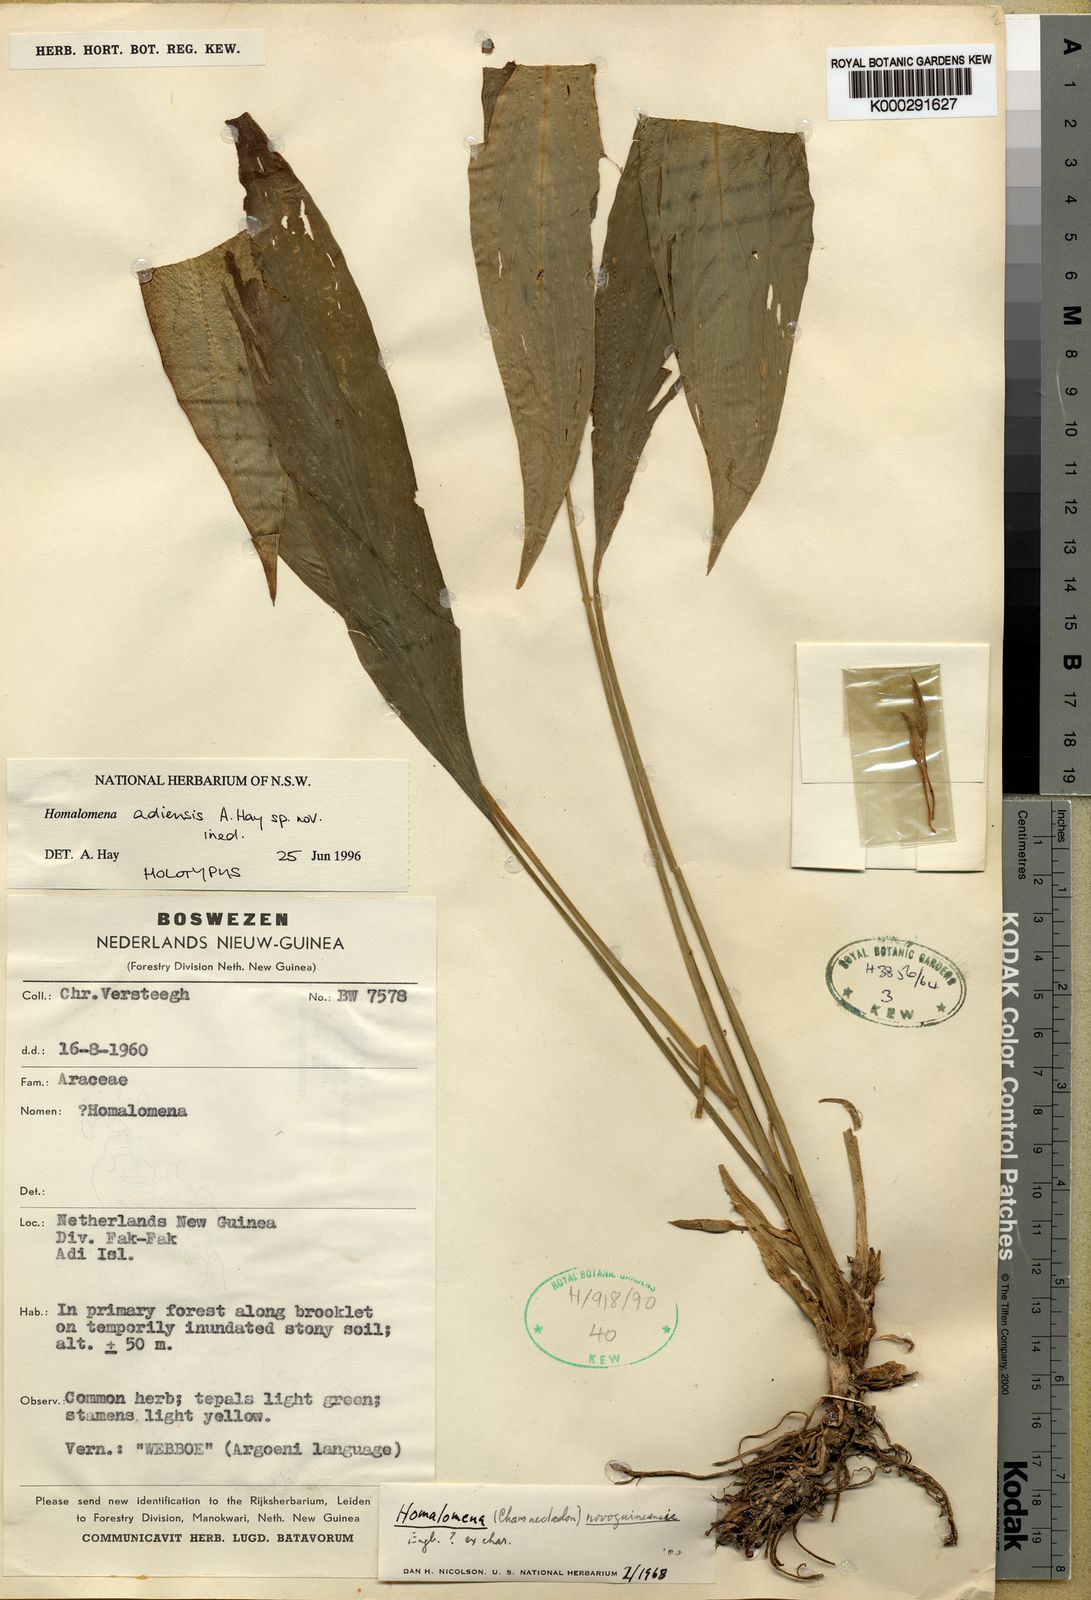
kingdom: Plantae
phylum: Tracheophyta
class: Liliopsida
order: Alismatales
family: Araceae
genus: Homalomena
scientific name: Homalomena adiensis
